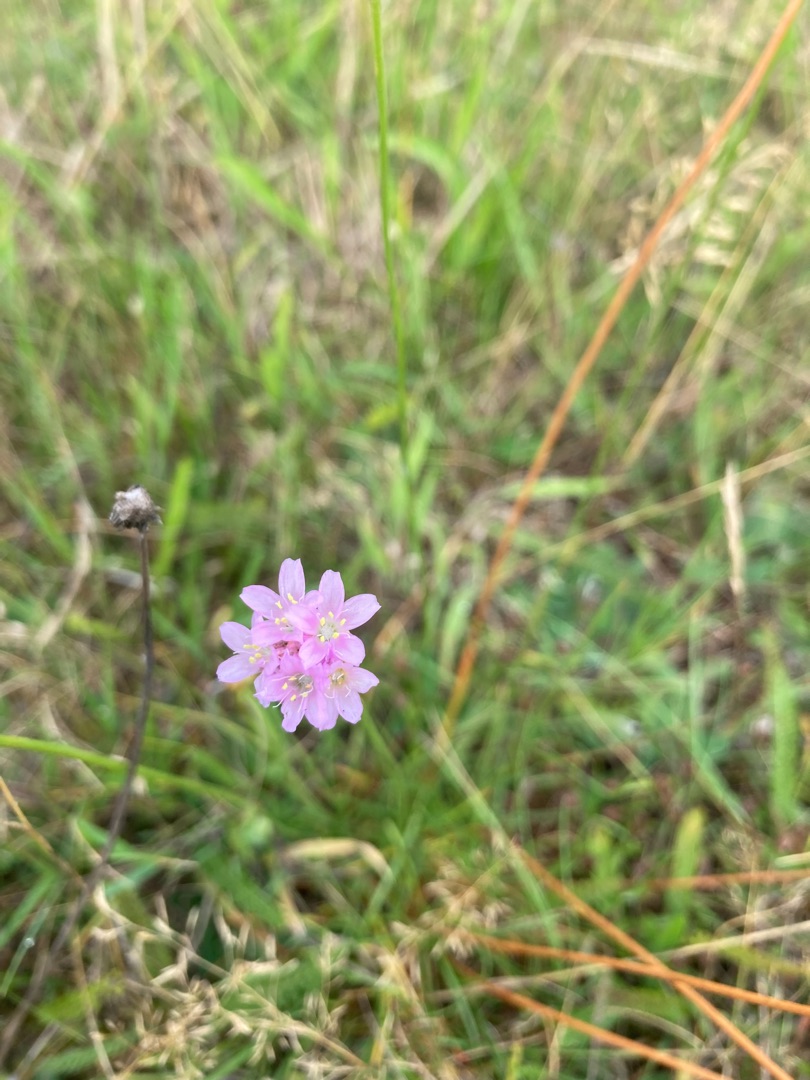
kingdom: Plantae
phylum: Tracheophyta
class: Magnoliopsida
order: Caryophyllales
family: Plumbaginaceae
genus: Armeria
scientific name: Armeria maritima
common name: Engelskgræs
